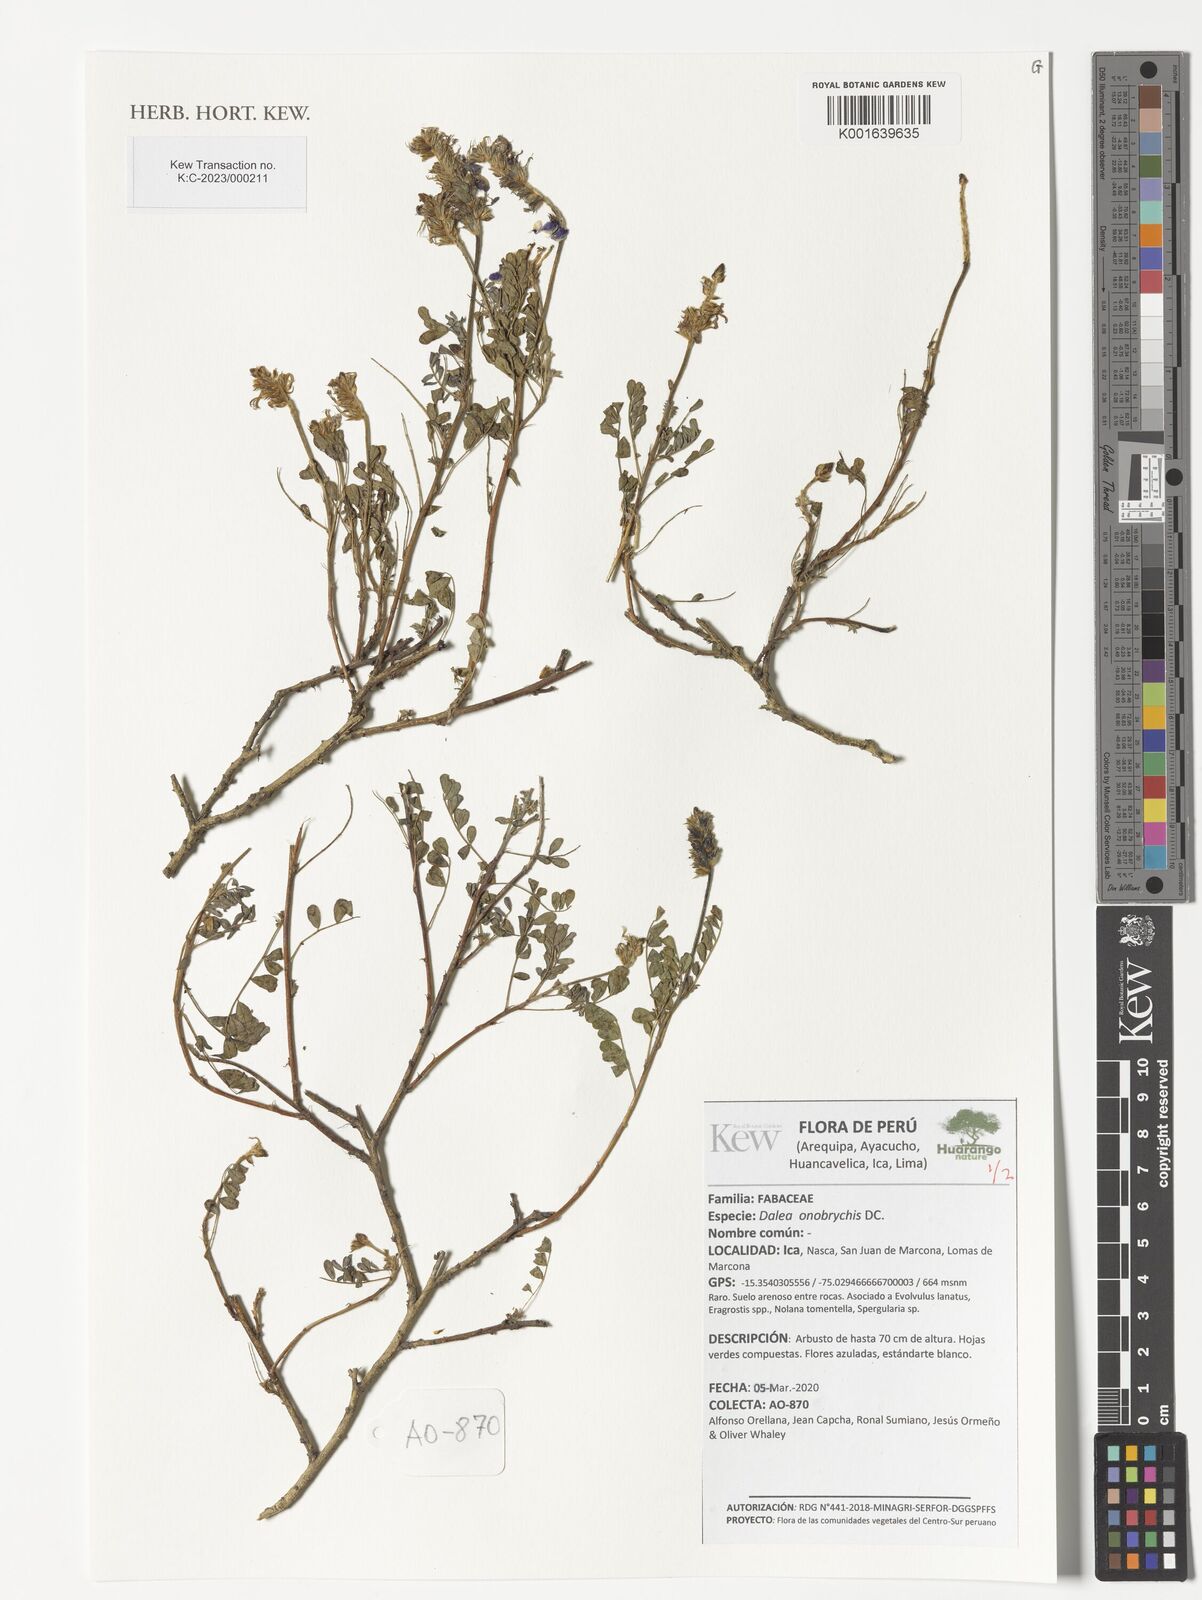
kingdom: Plantae
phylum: Tracheophyta
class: Magnoliopsida
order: Fabales
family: Fabaceae
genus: Dalea
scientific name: Dalea onobrychis
